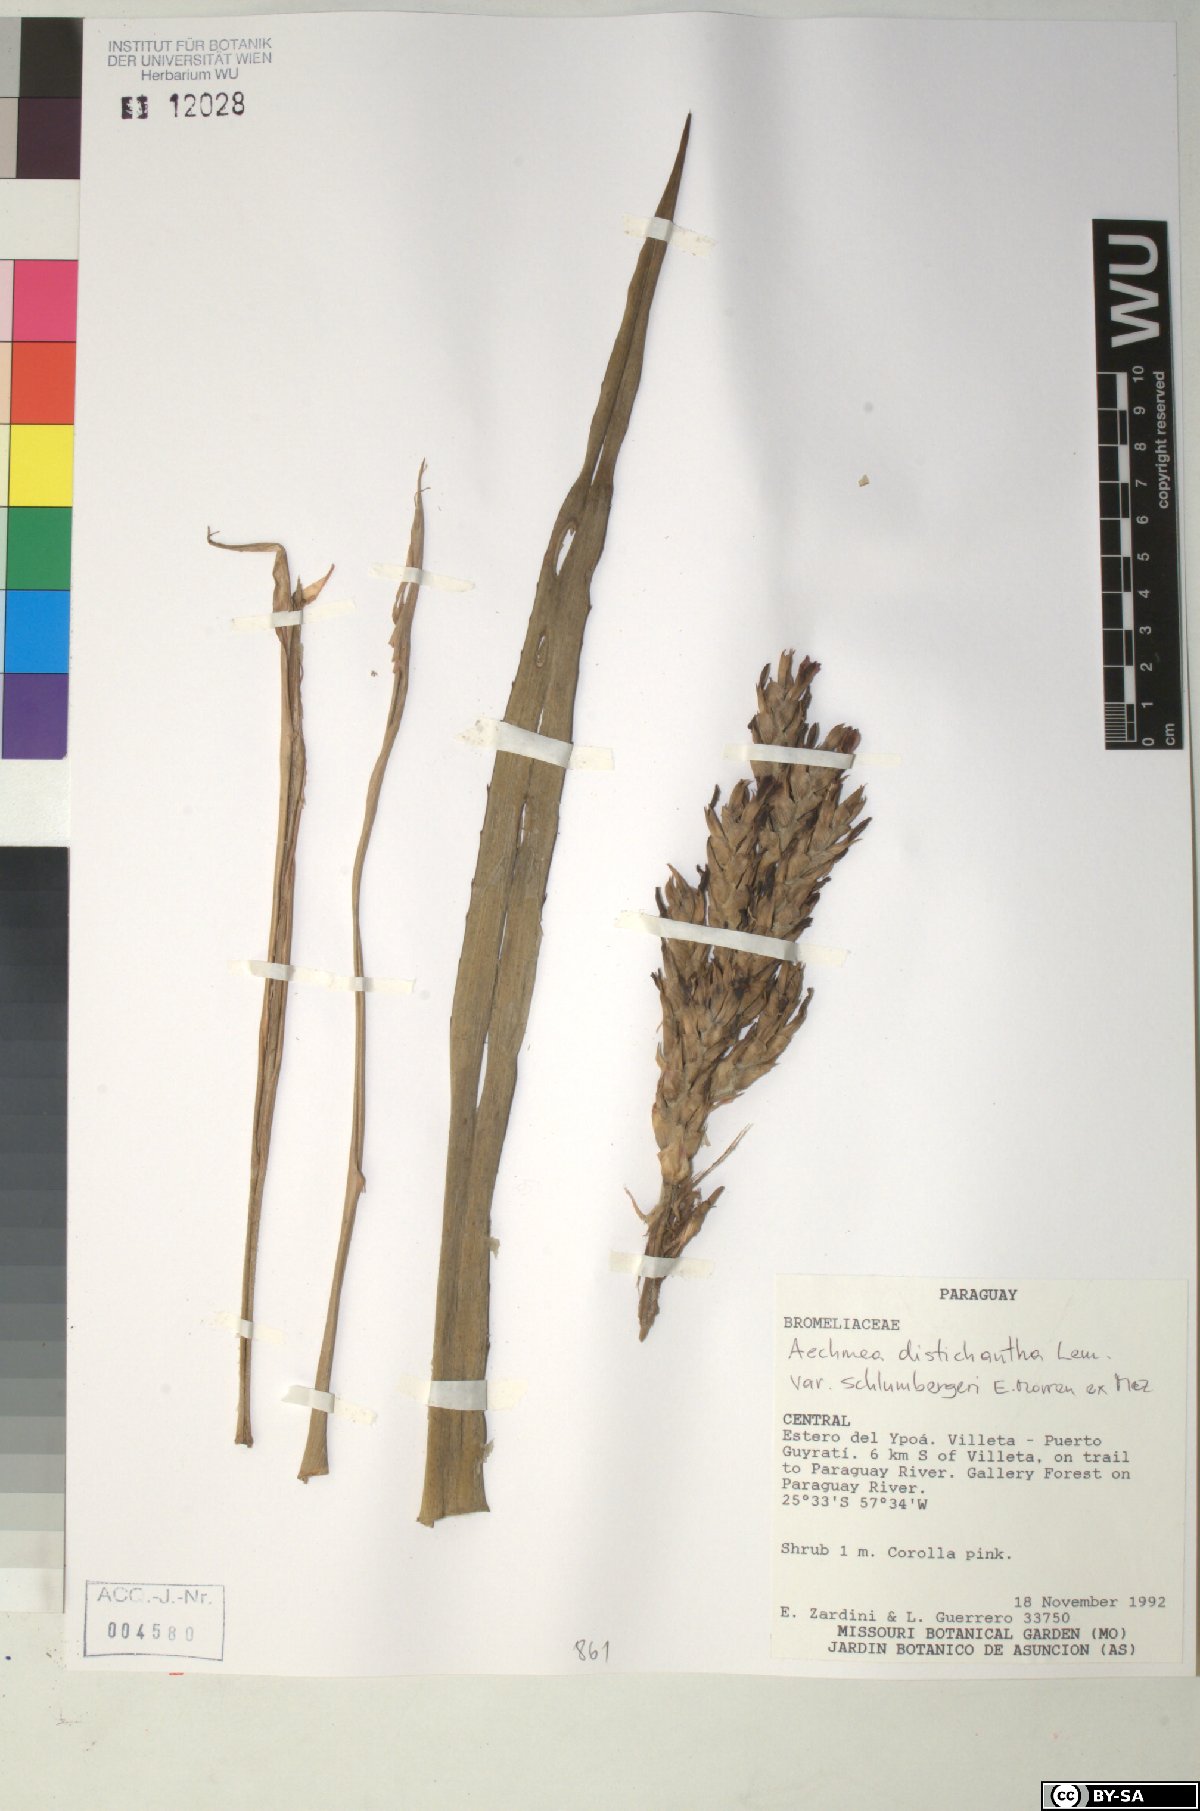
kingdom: Plantae
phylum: Tracheophyta
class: Liliopsida
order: Poales
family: Bromeliaceae
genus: Aechmea
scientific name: Aechmea distichantha
